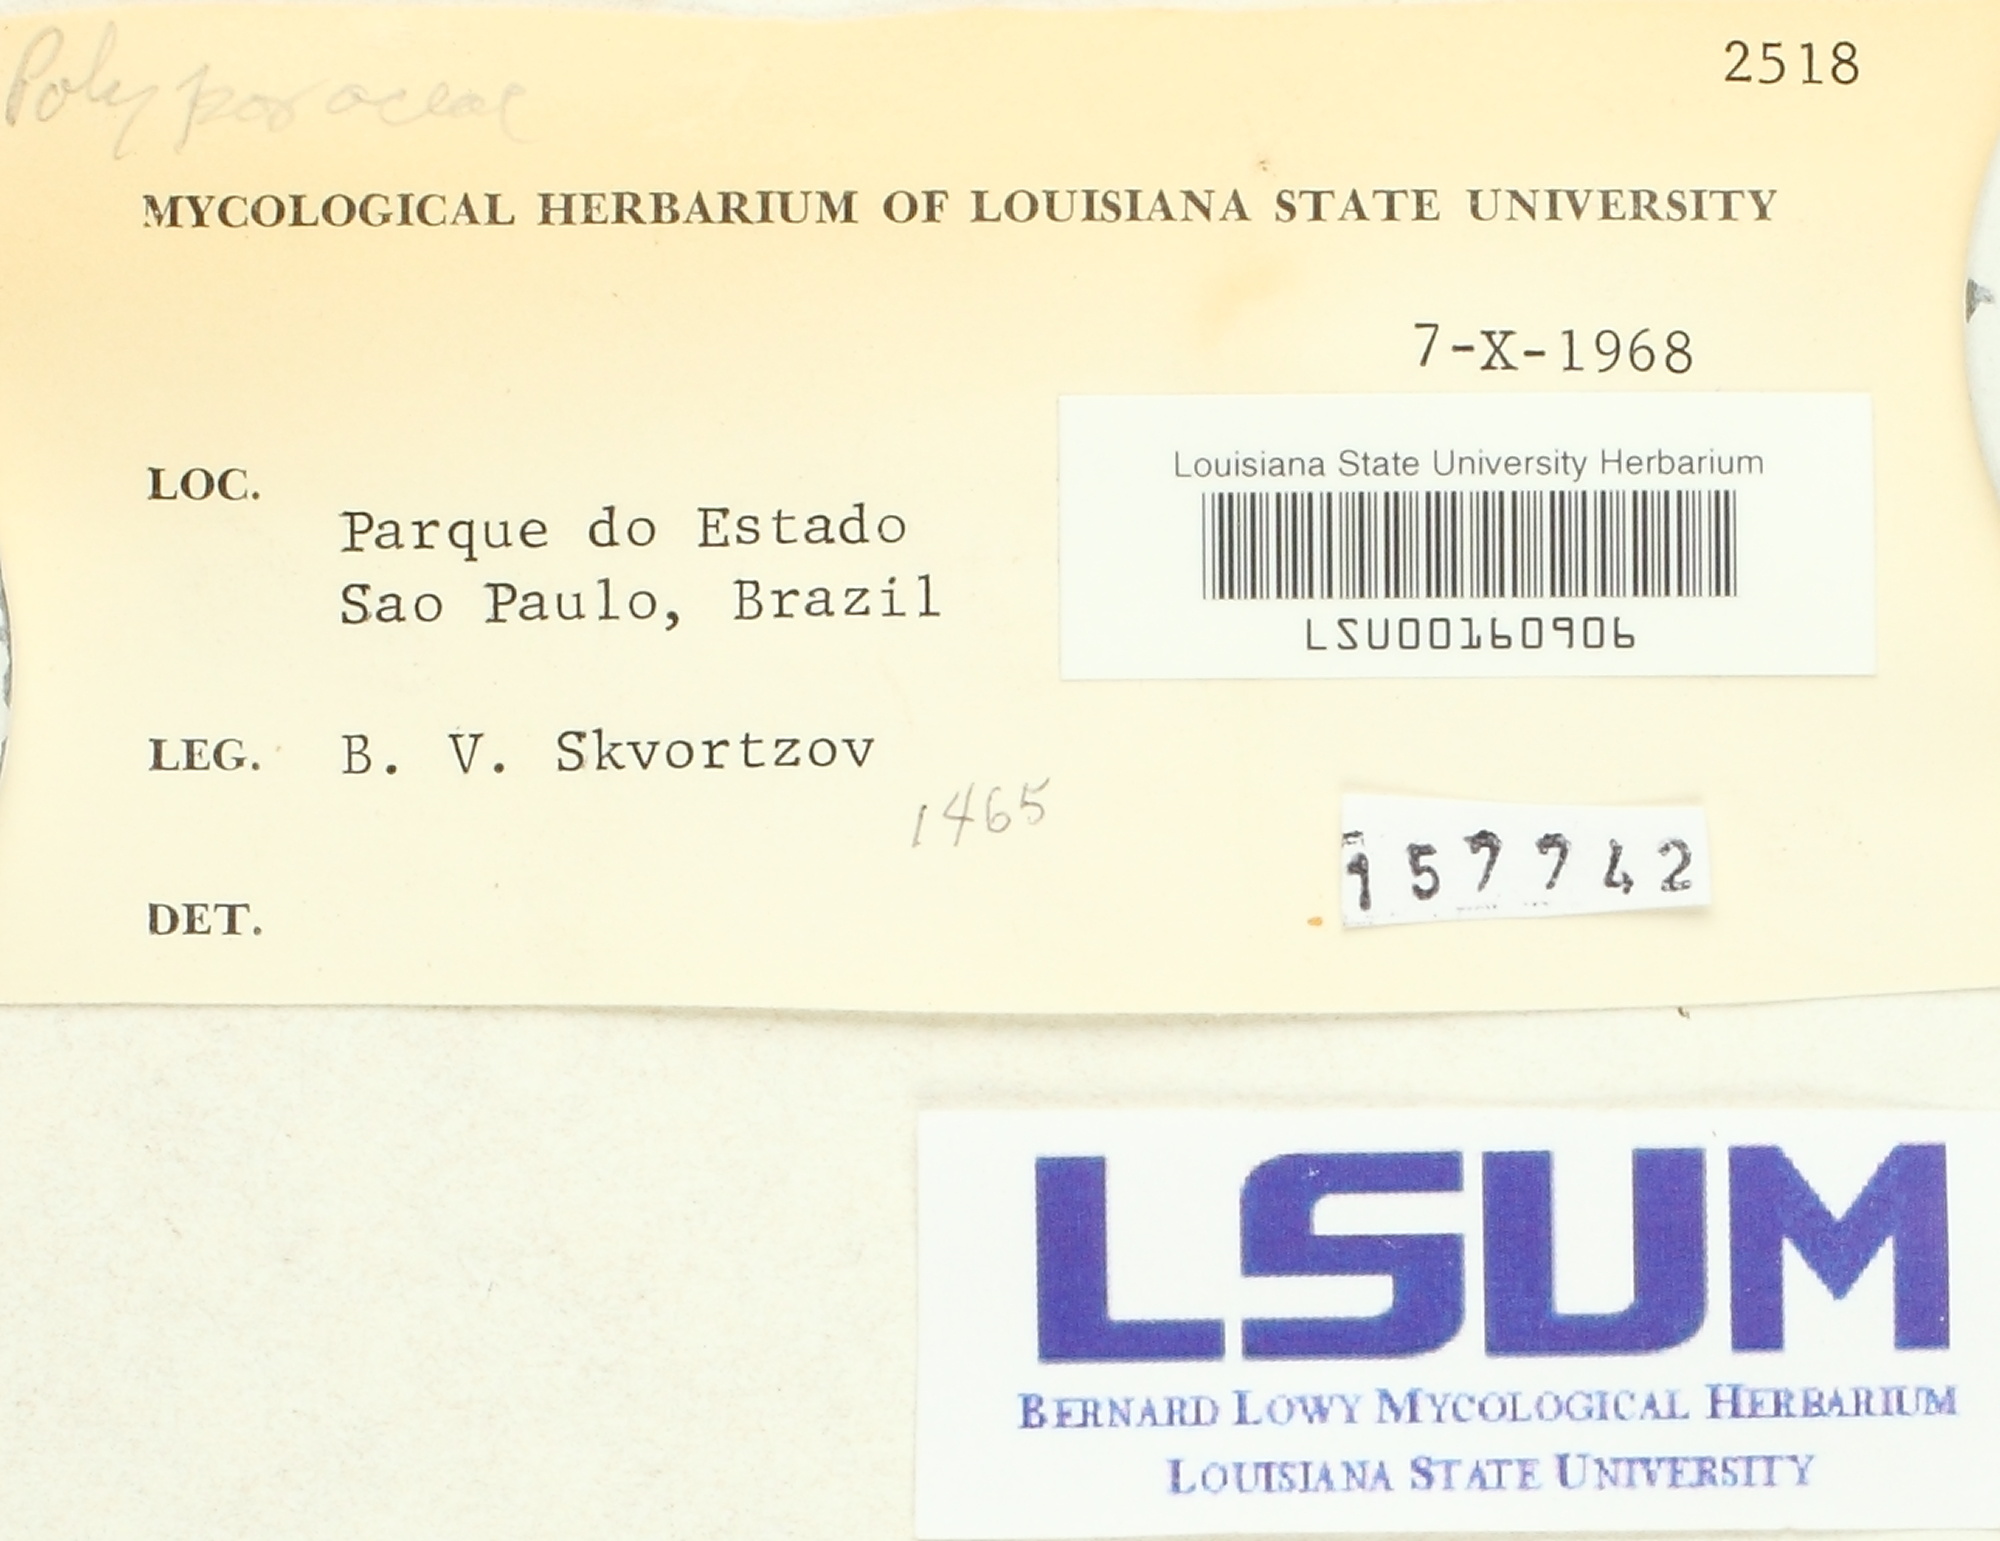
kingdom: Fungi
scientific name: Fungi
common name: Fungi
